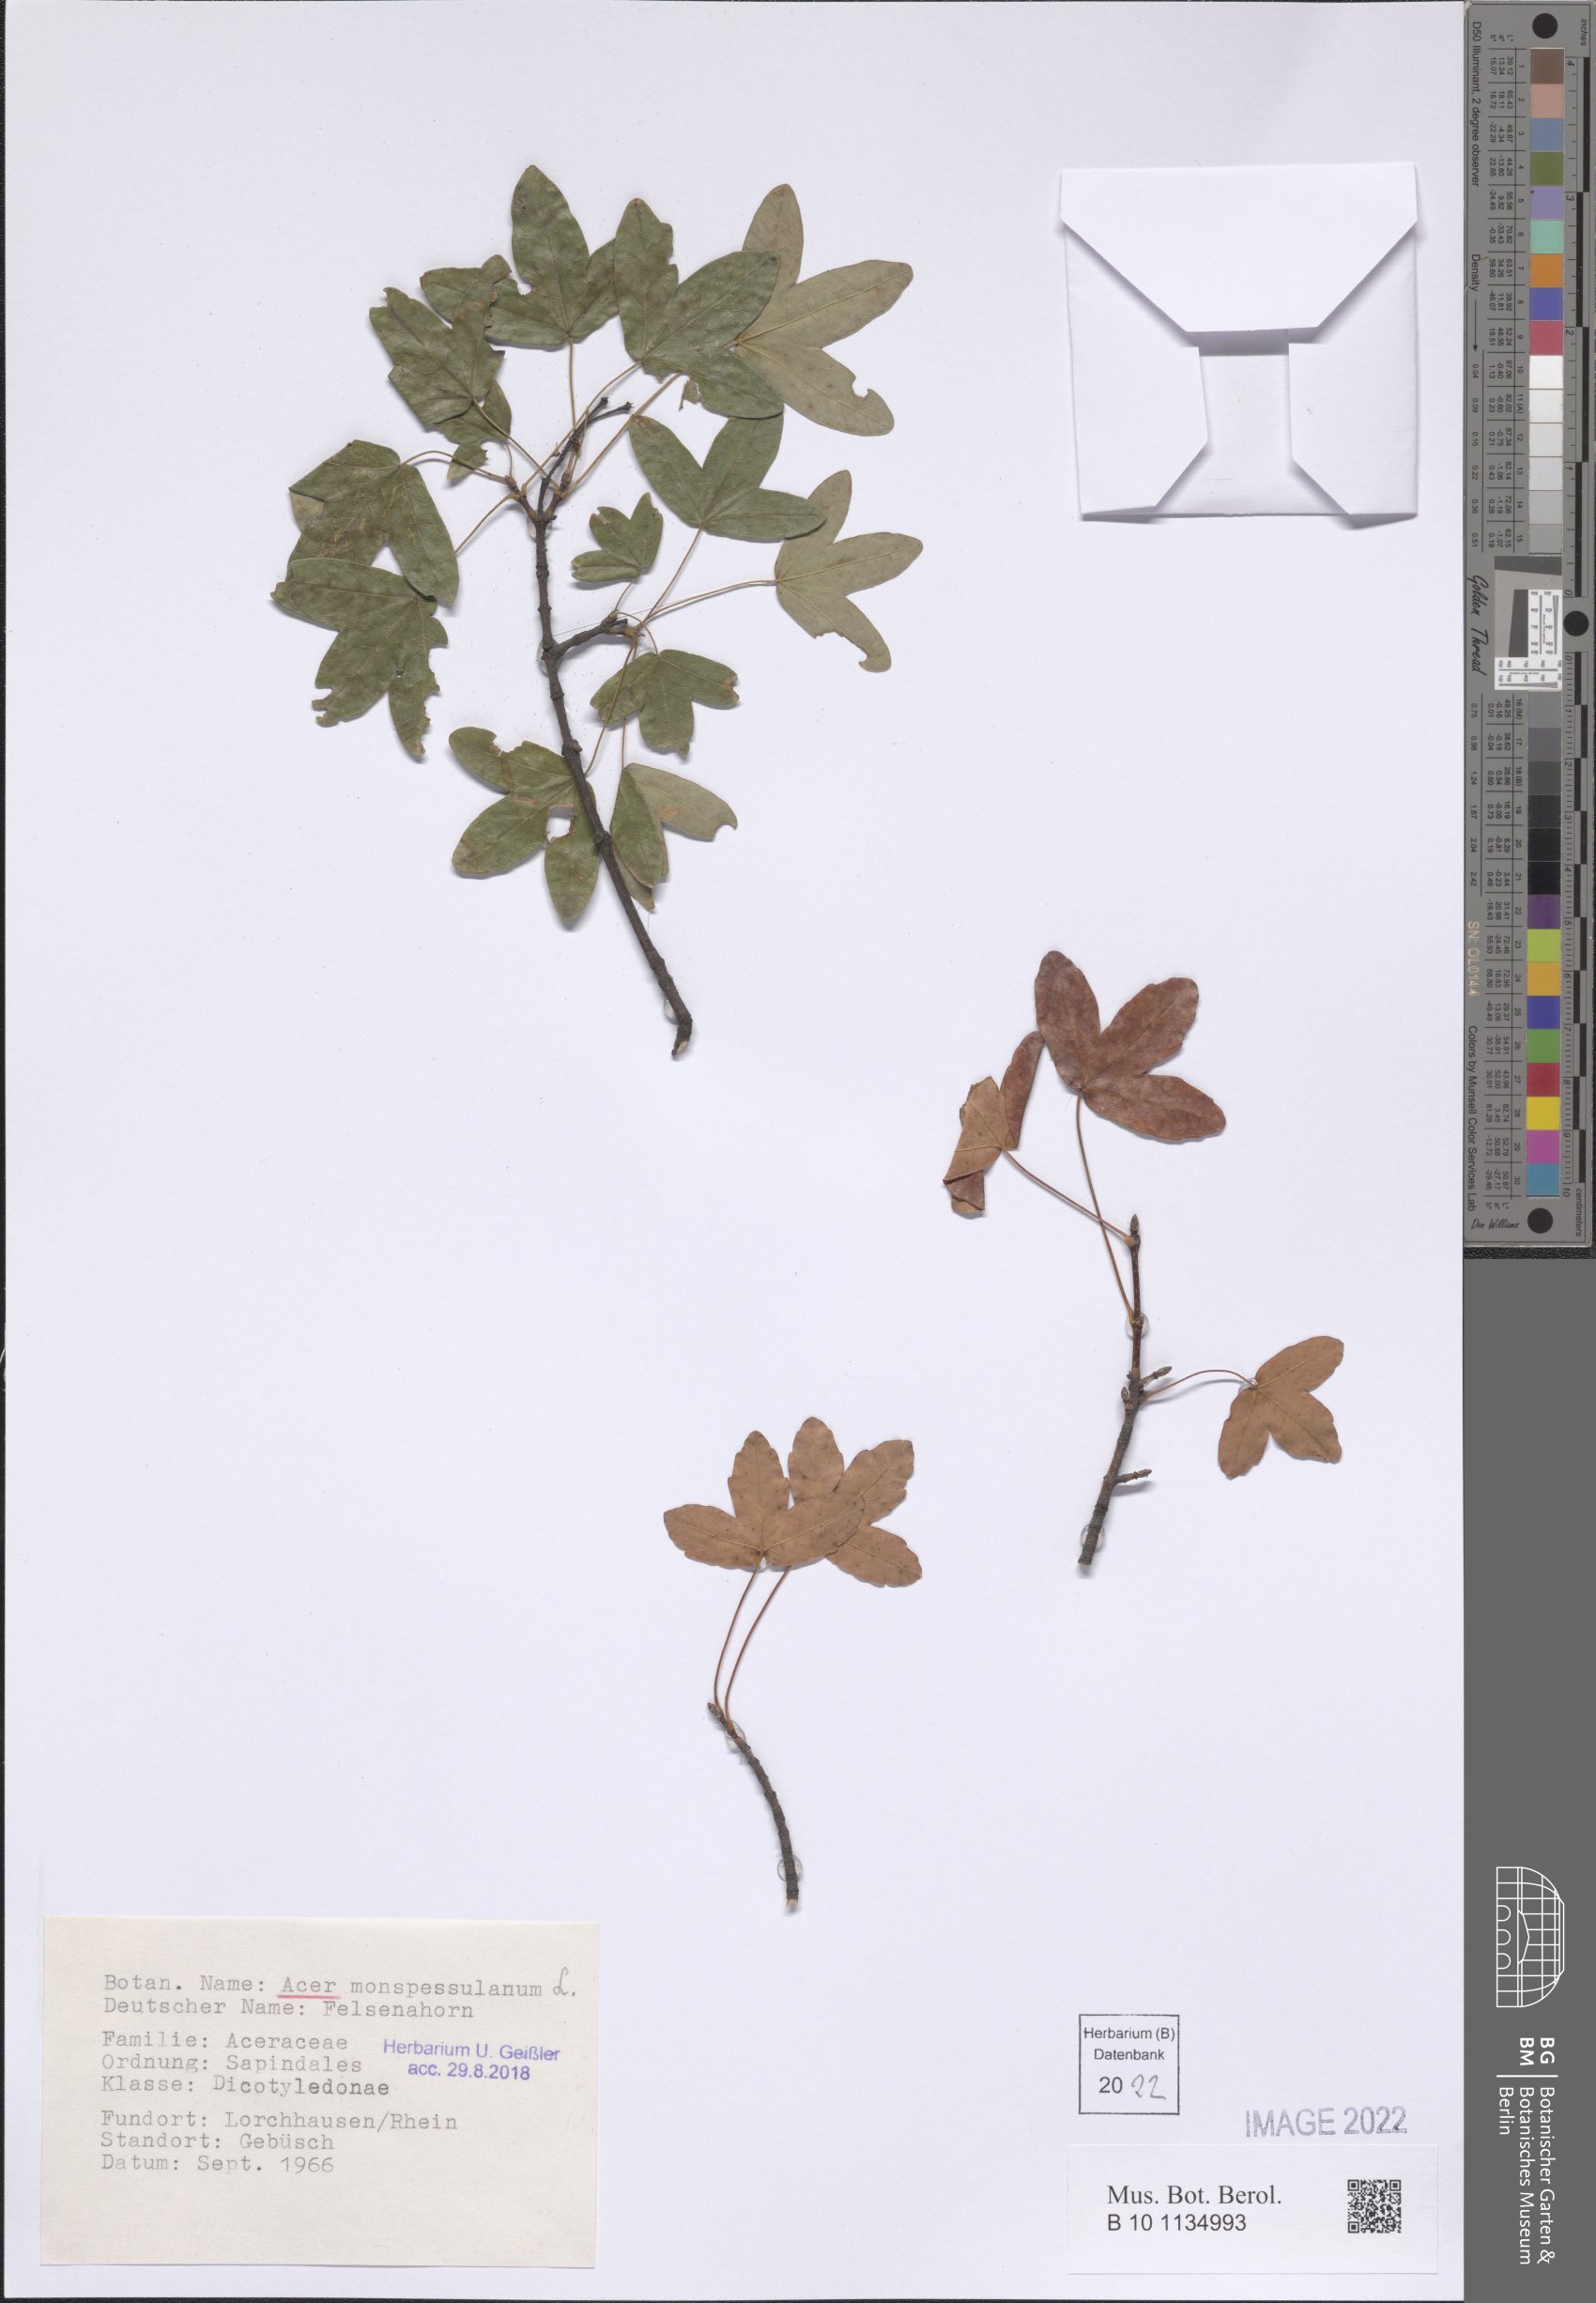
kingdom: Plantae
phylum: Tracheophyta
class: Magnoliopsida
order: Sapindales
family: Sapindaceae
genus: Acer
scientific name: Acer monspessulanum
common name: Montpellier maple
